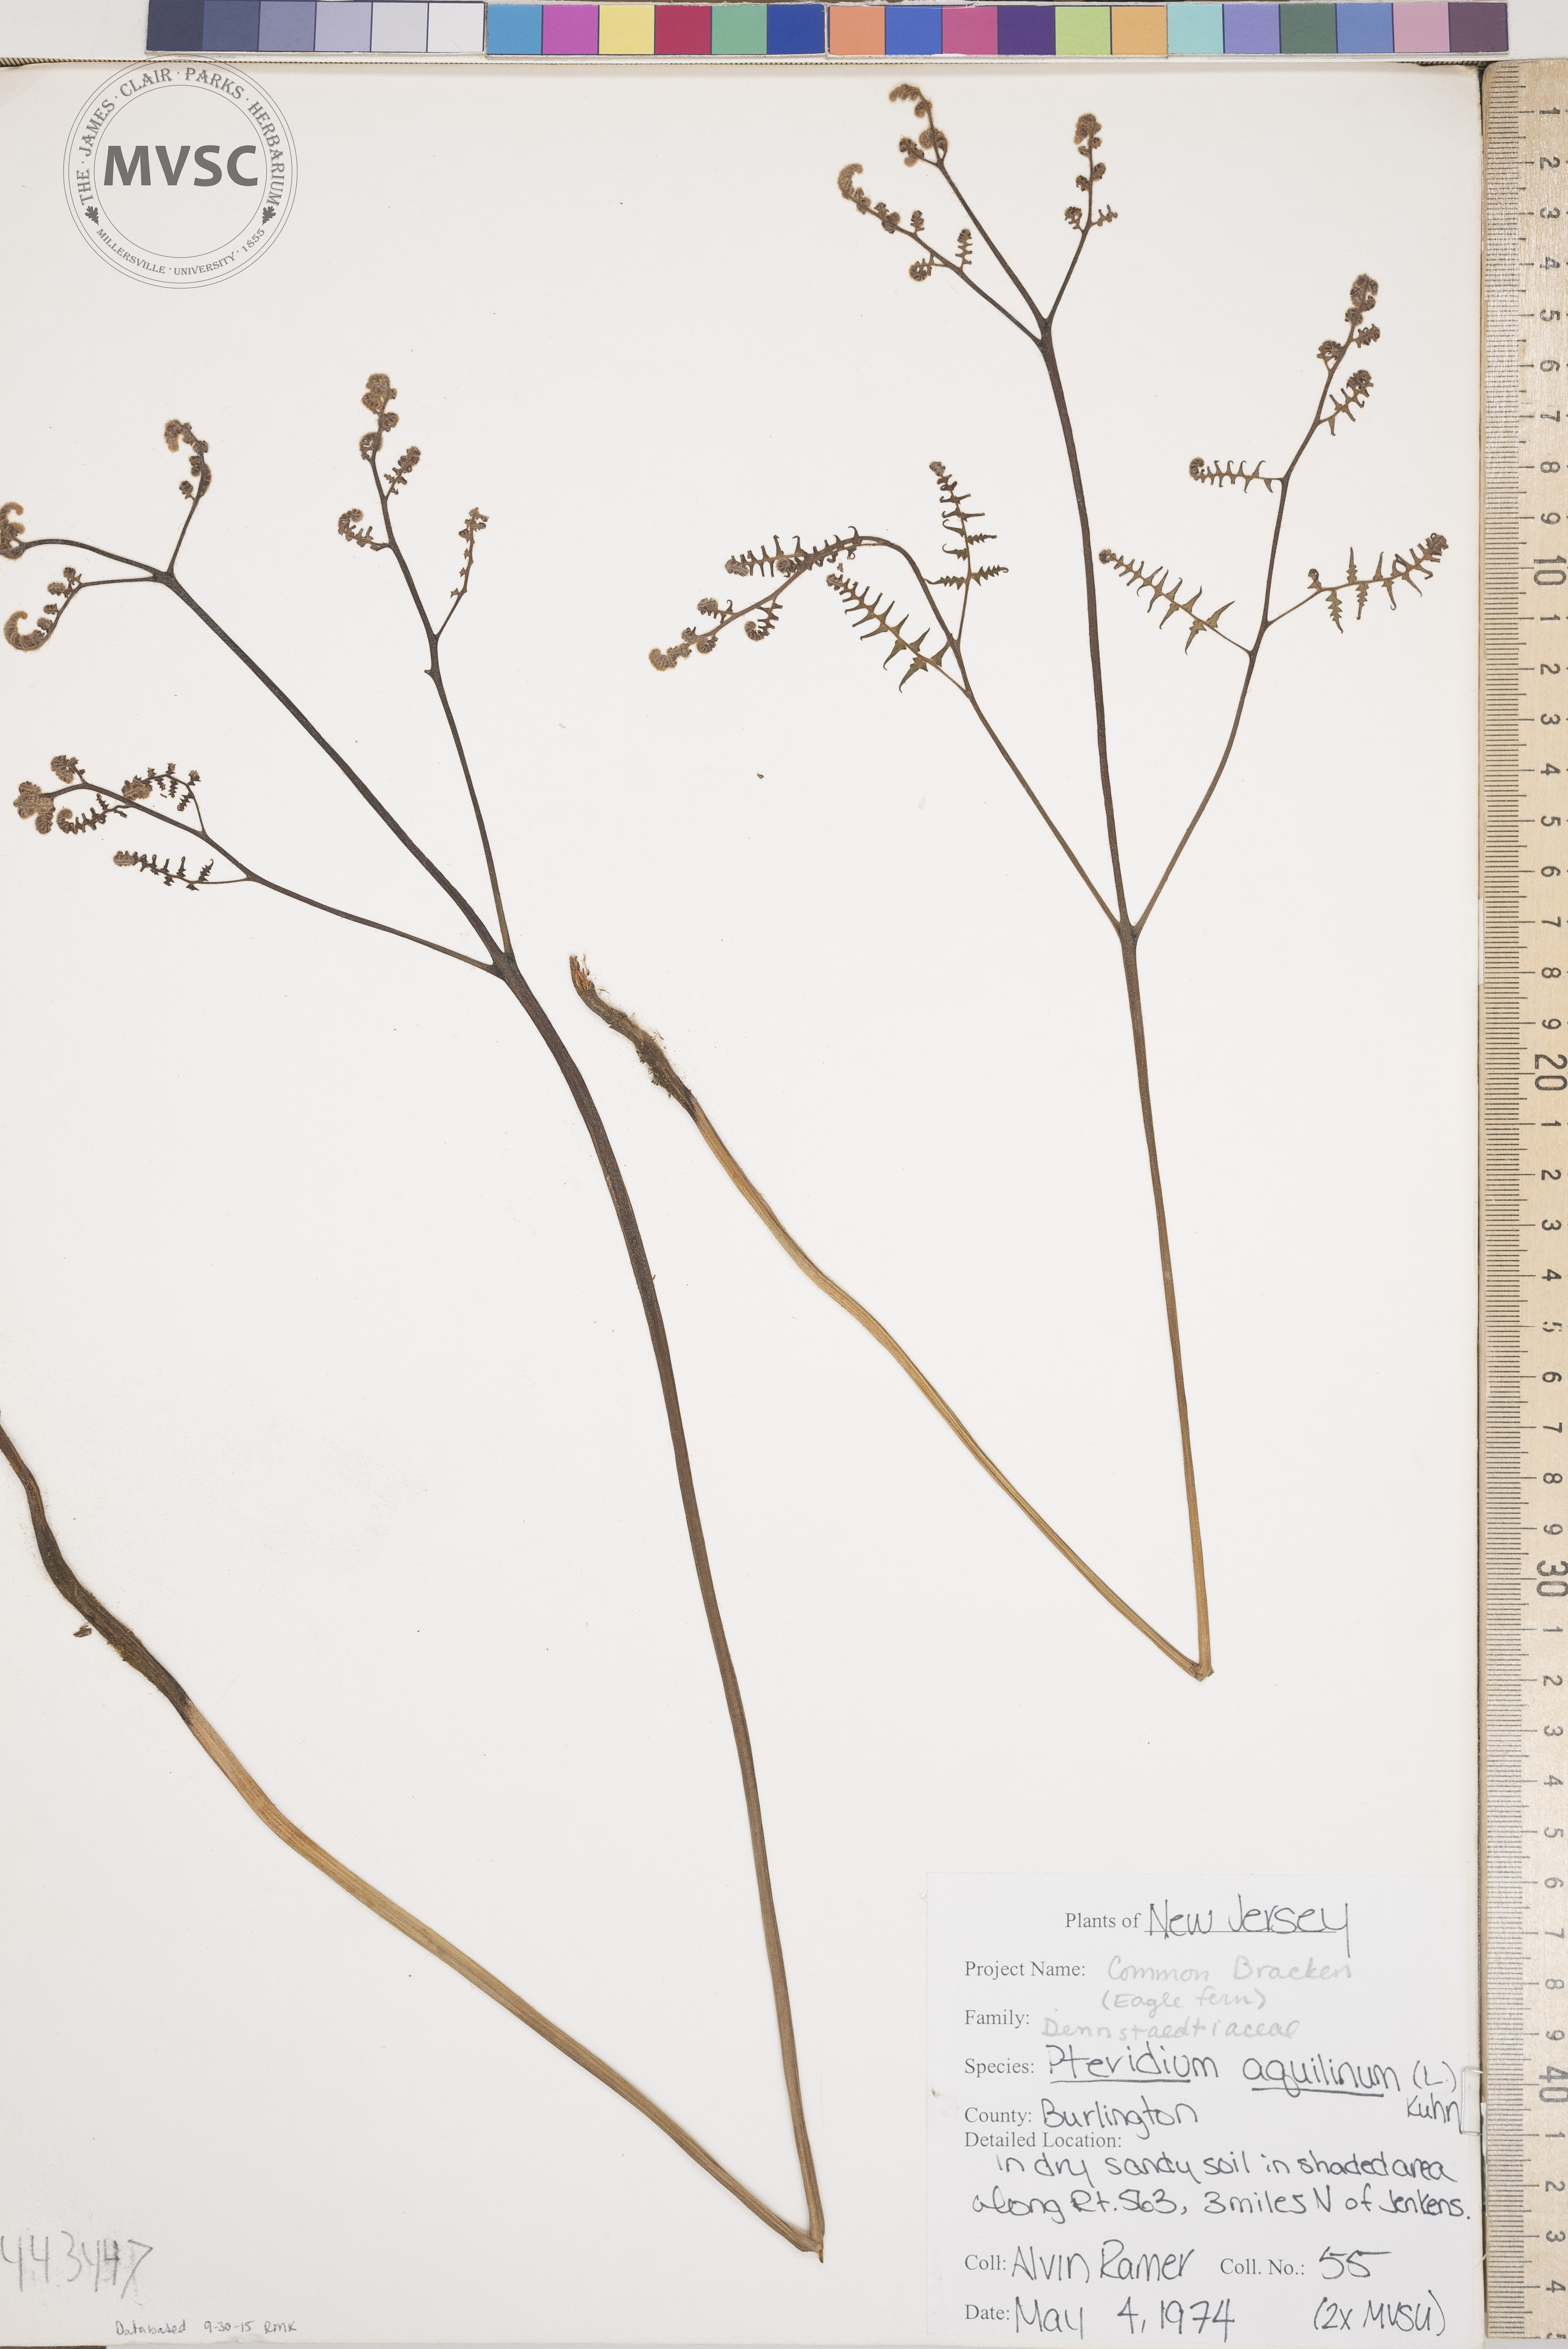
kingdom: Plantae
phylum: Tracheophyta
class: Polypodiopsida
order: Polypodiales
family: Dennstaedtiaceae
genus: Pteridium
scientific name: Pteridium aquilinum
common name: Bracken
